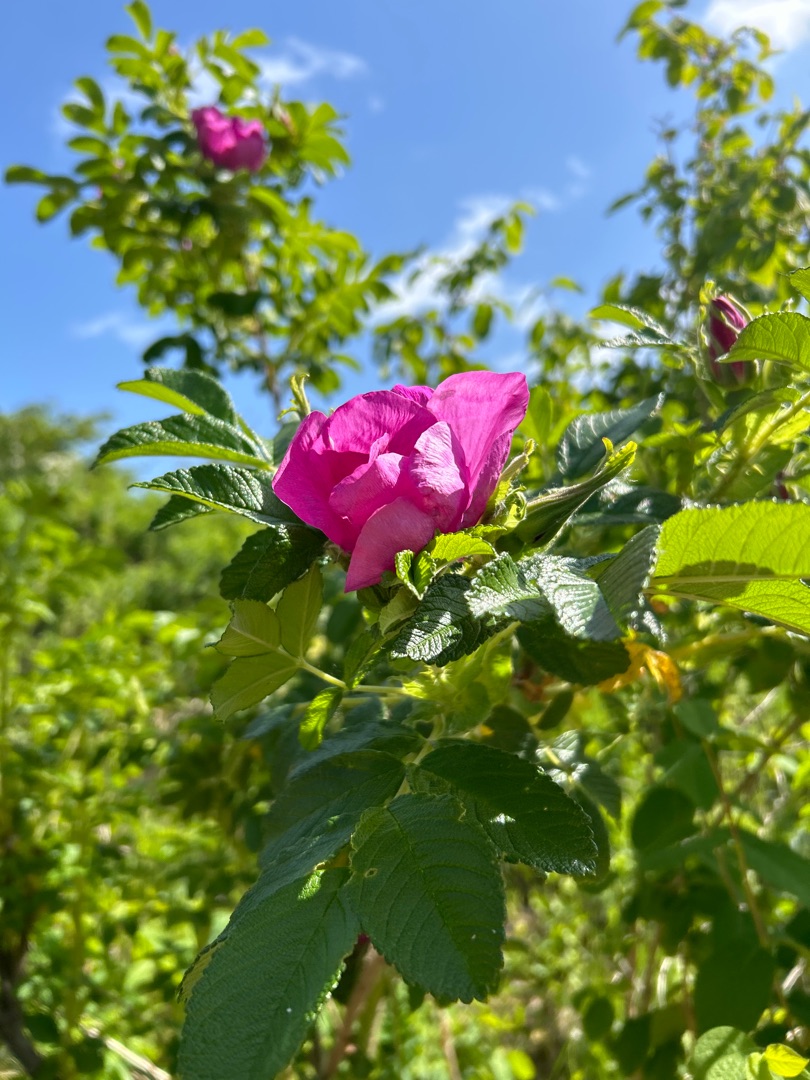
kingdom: Plantae
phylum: Tracheophyta
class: Magnoliopsida
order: Rosales
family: Rosaceae
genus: Rosa
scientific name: Rosa rugosa
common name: Rynket rose
